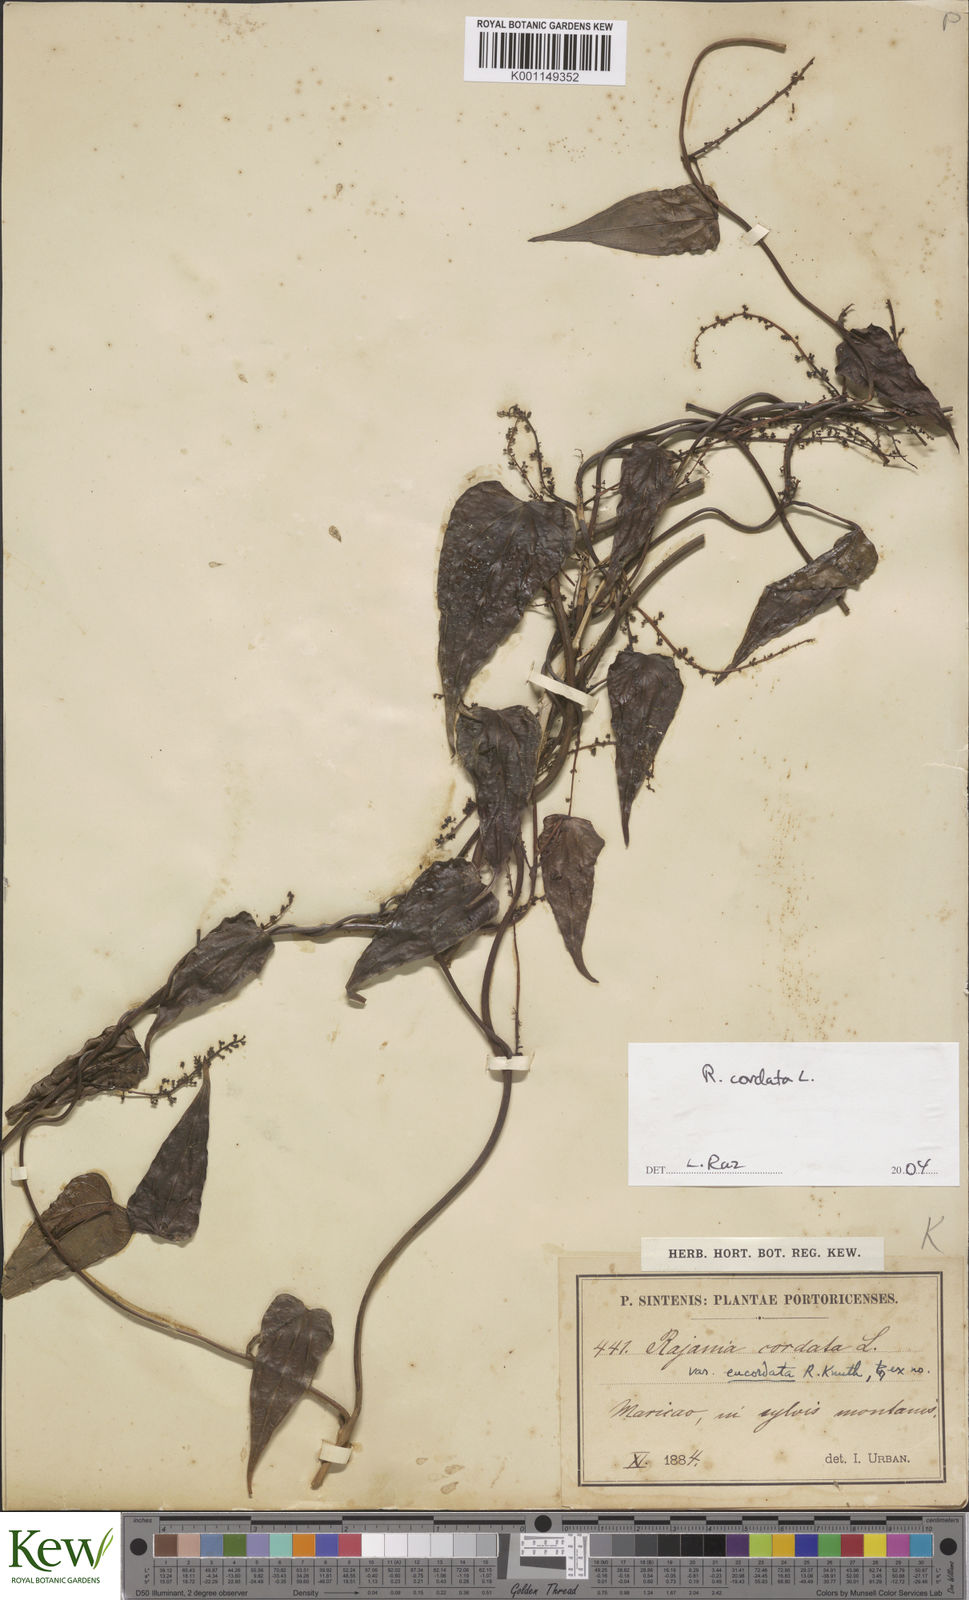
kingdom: Plantae
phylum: Tracheophyta
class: Liliopsida
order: Dioscoreales
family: Dioscoreaceae
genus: Dioscorea
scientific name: Dioscorea
